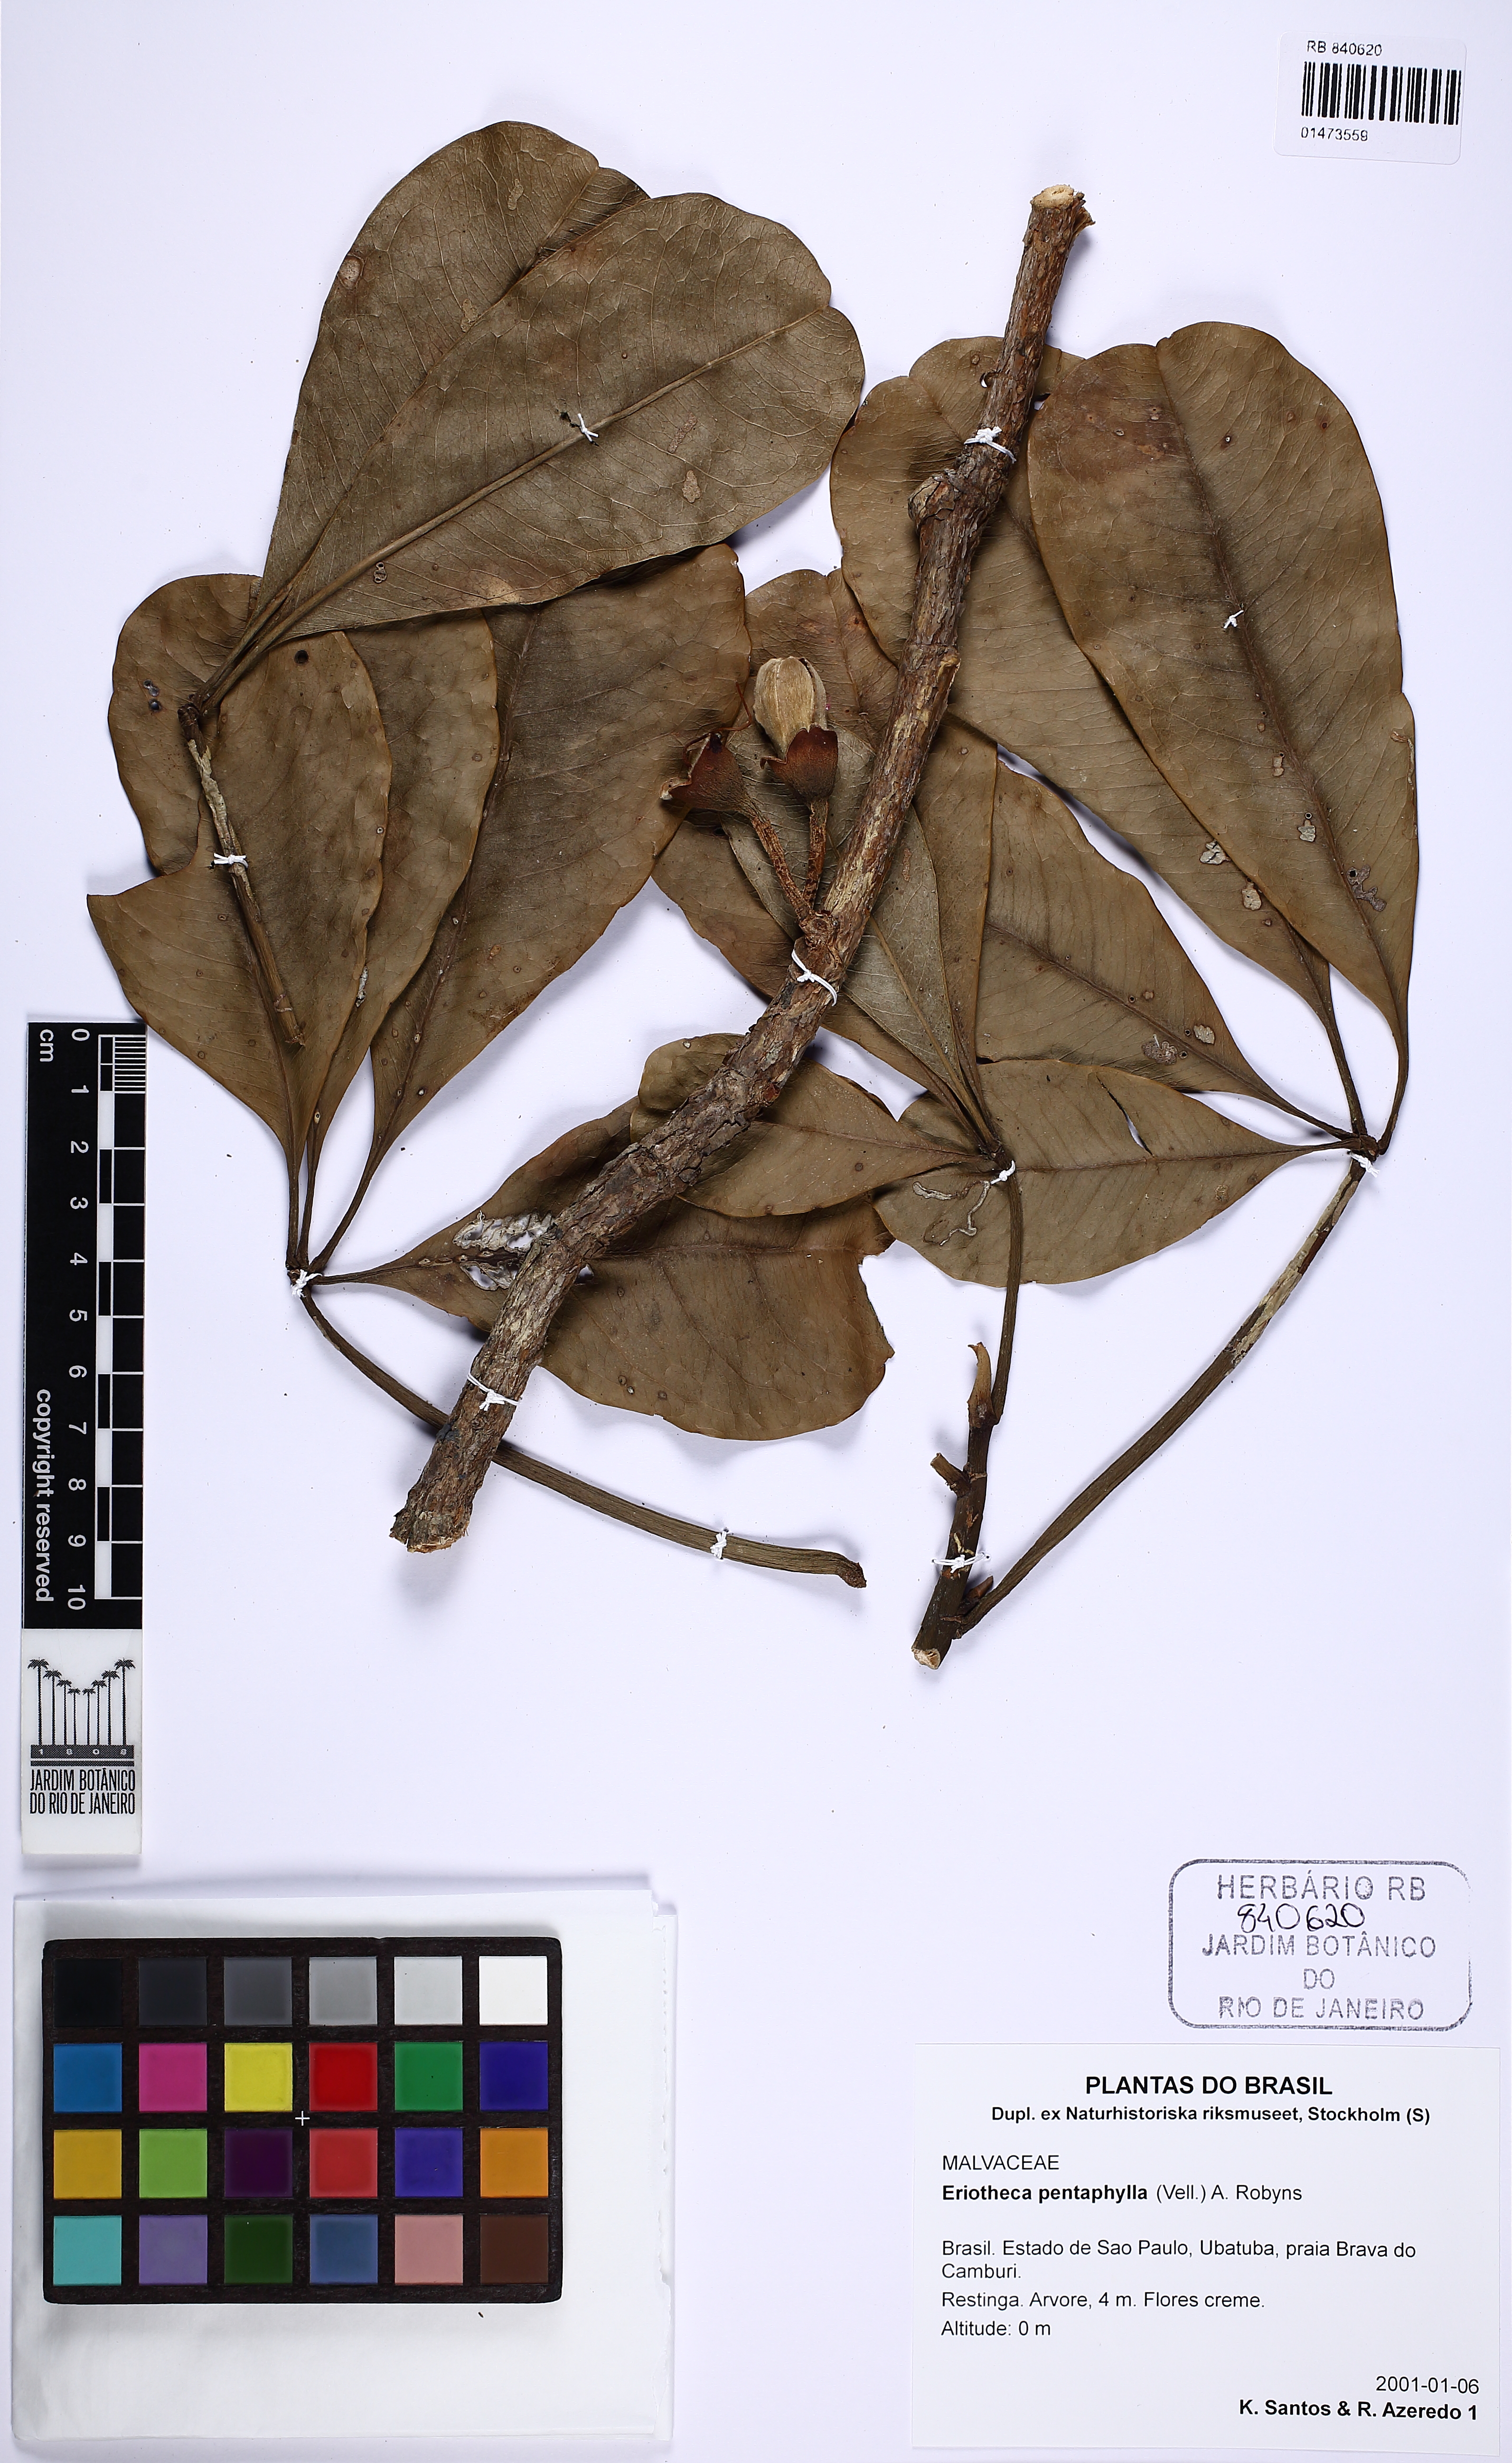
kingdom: Plantae
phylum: Tracheophyta
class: Magnoliopsida
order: Malvales
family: Malvaceae
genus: Eriotheca
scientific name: Eriotheca pentaphylla
